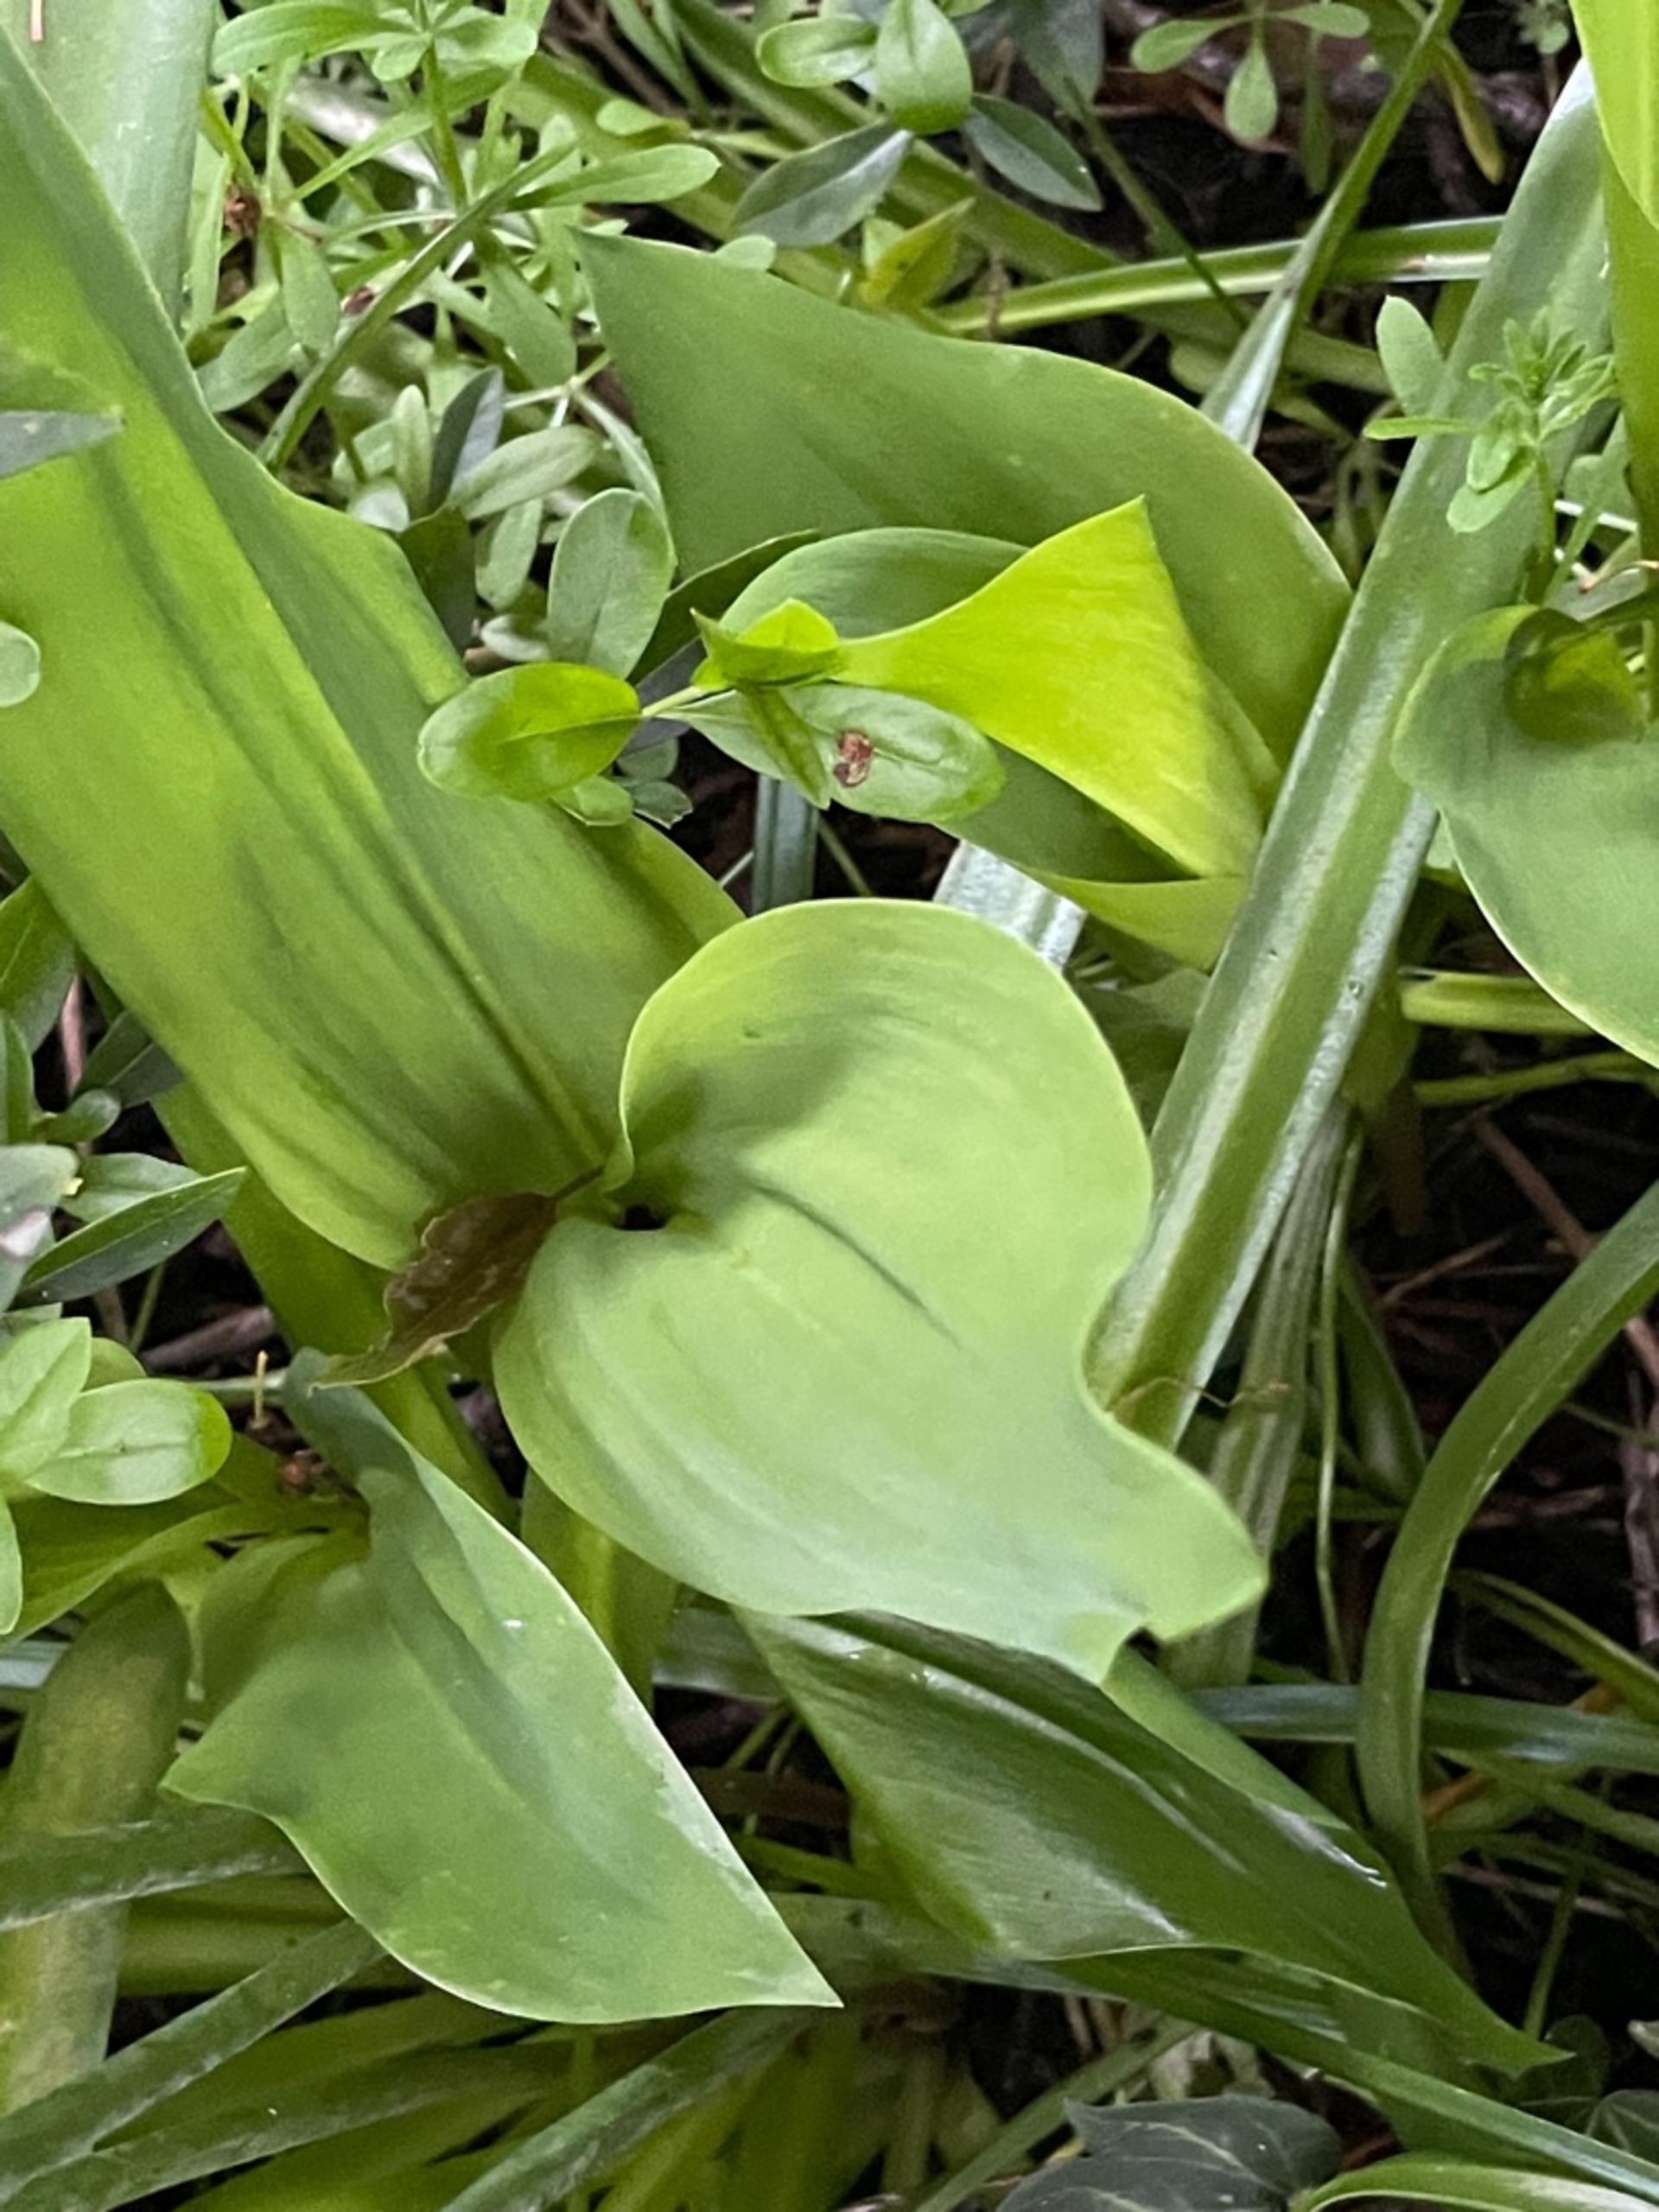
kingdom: Plantae
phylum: Tracheophyta
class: Liliopsida
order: Asparagales
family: Asparagaceae
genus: Hyacinthoides
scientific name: Hyacinthoides massartiana
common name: Hybrid-klokkeskilla
